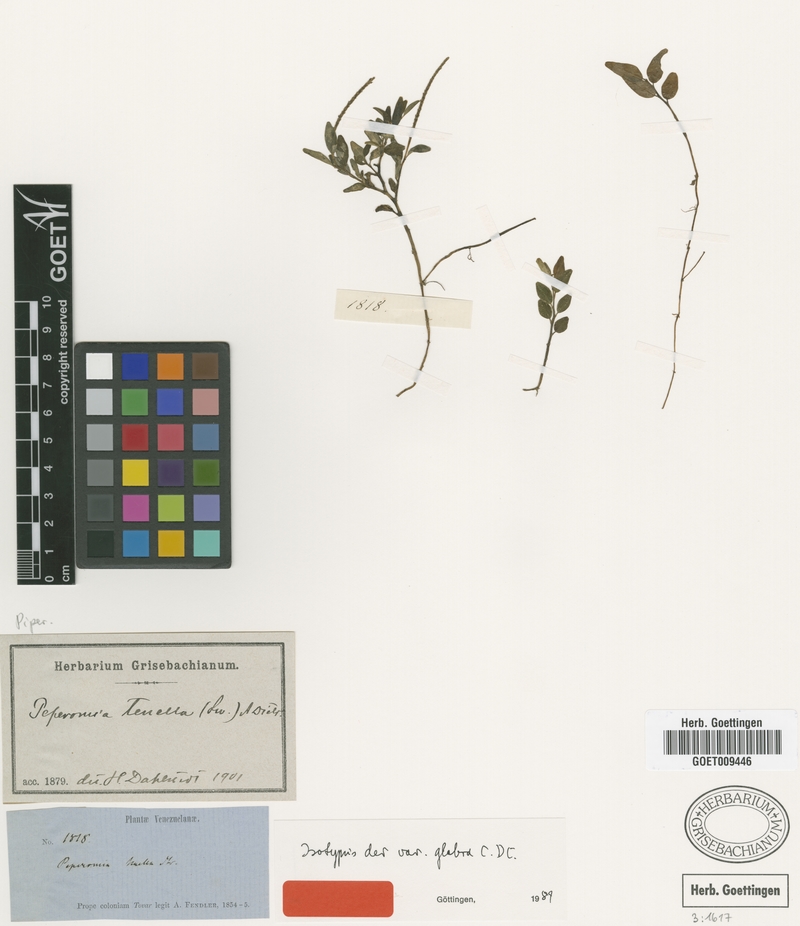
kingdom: Plantae
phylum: Tracheophyta
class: Magnoliopsida
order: Piperales
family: Piperaceae
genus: Peperomia
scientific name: Peperomia tenella
